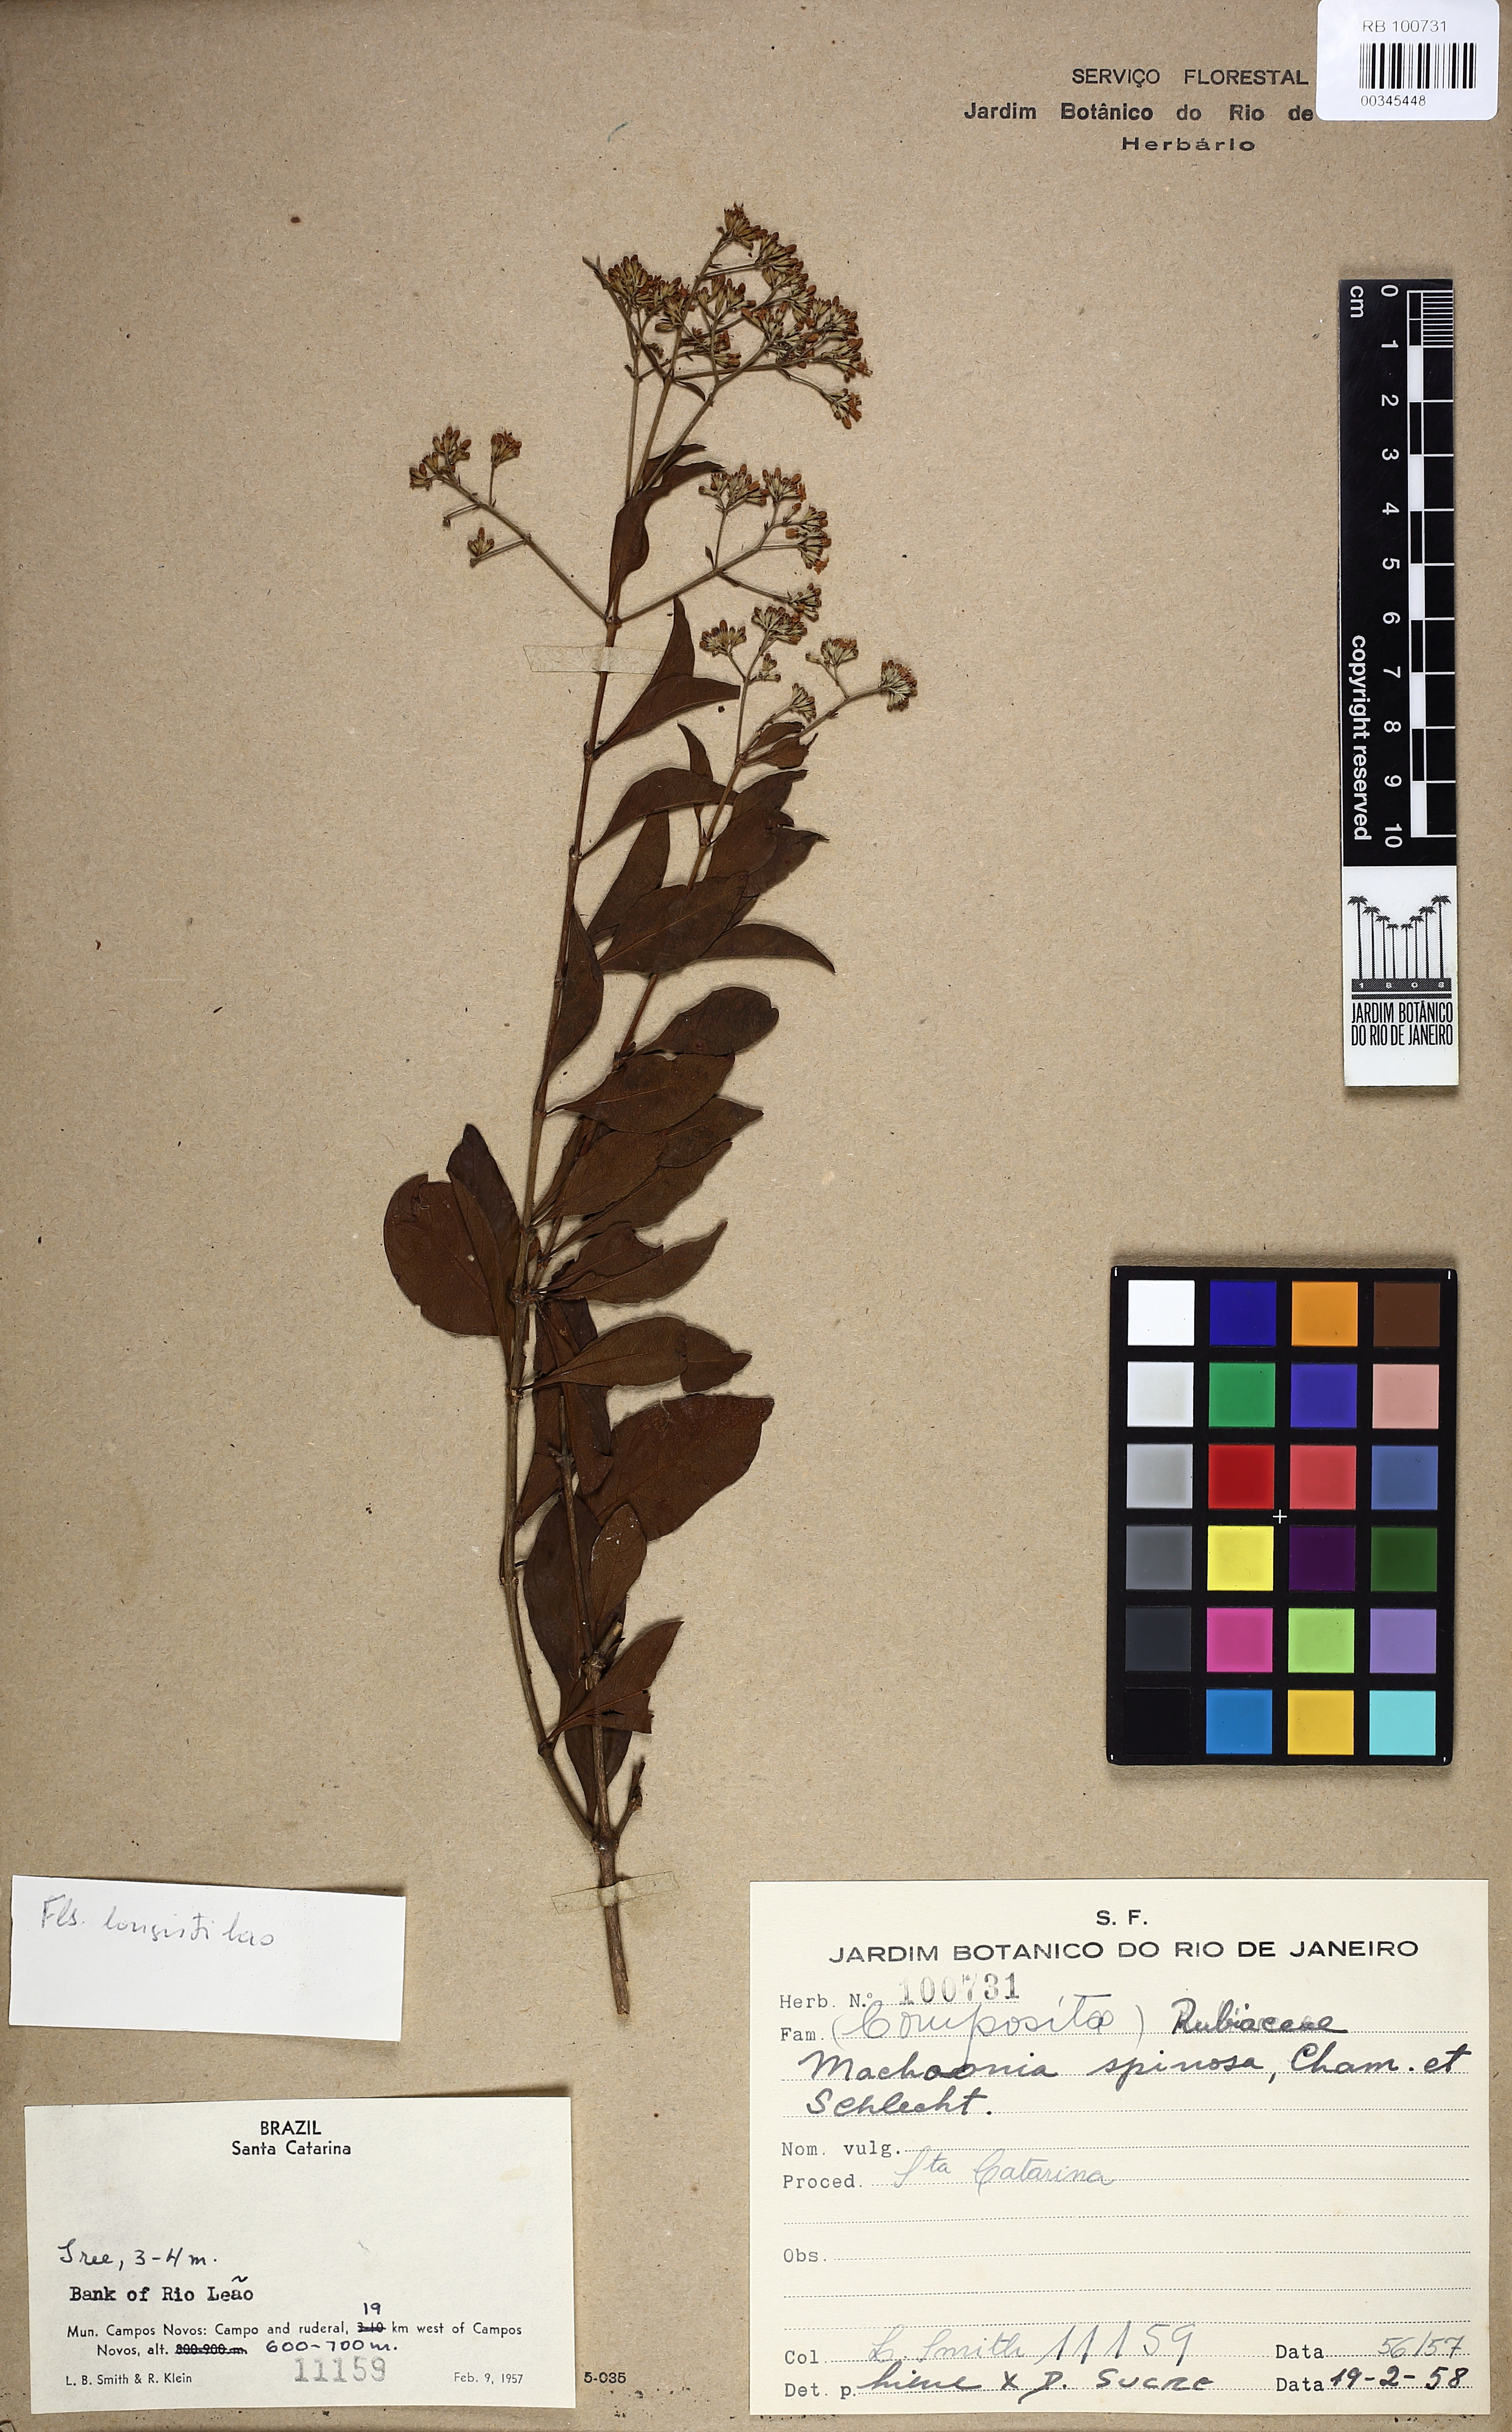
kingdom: Plantae
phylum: Tracheophyta
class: Magnoliopsida
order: Gentianales
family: Rubiaceae
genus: Machaonia
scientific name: Machaonia brasiliensis
